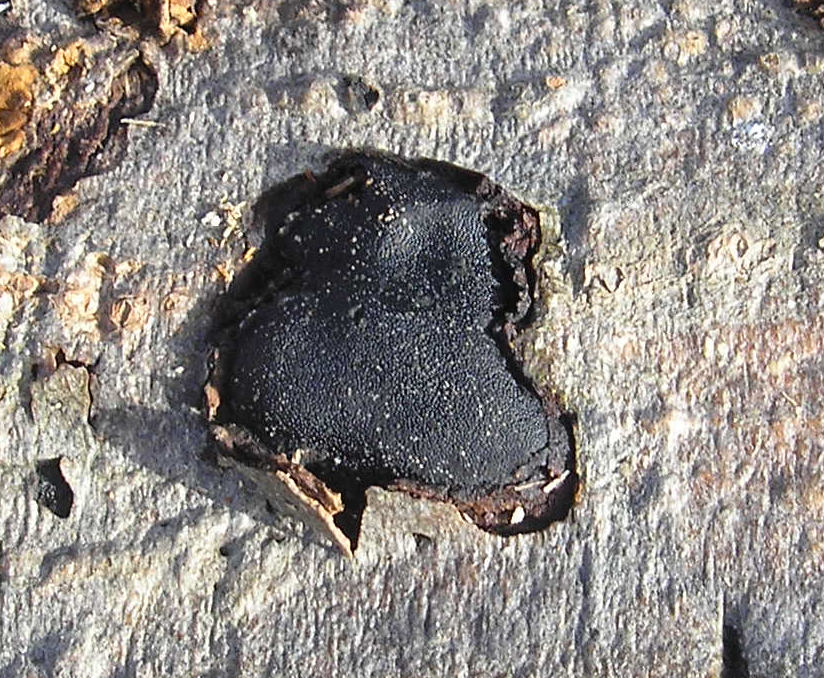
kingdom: Fungi
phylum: Ascomycota
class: Sordariomycetes
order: Boliniales
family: Boliniaceae
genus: Camarops
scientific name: Camarops polysperma
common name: elle-kulsnegl
